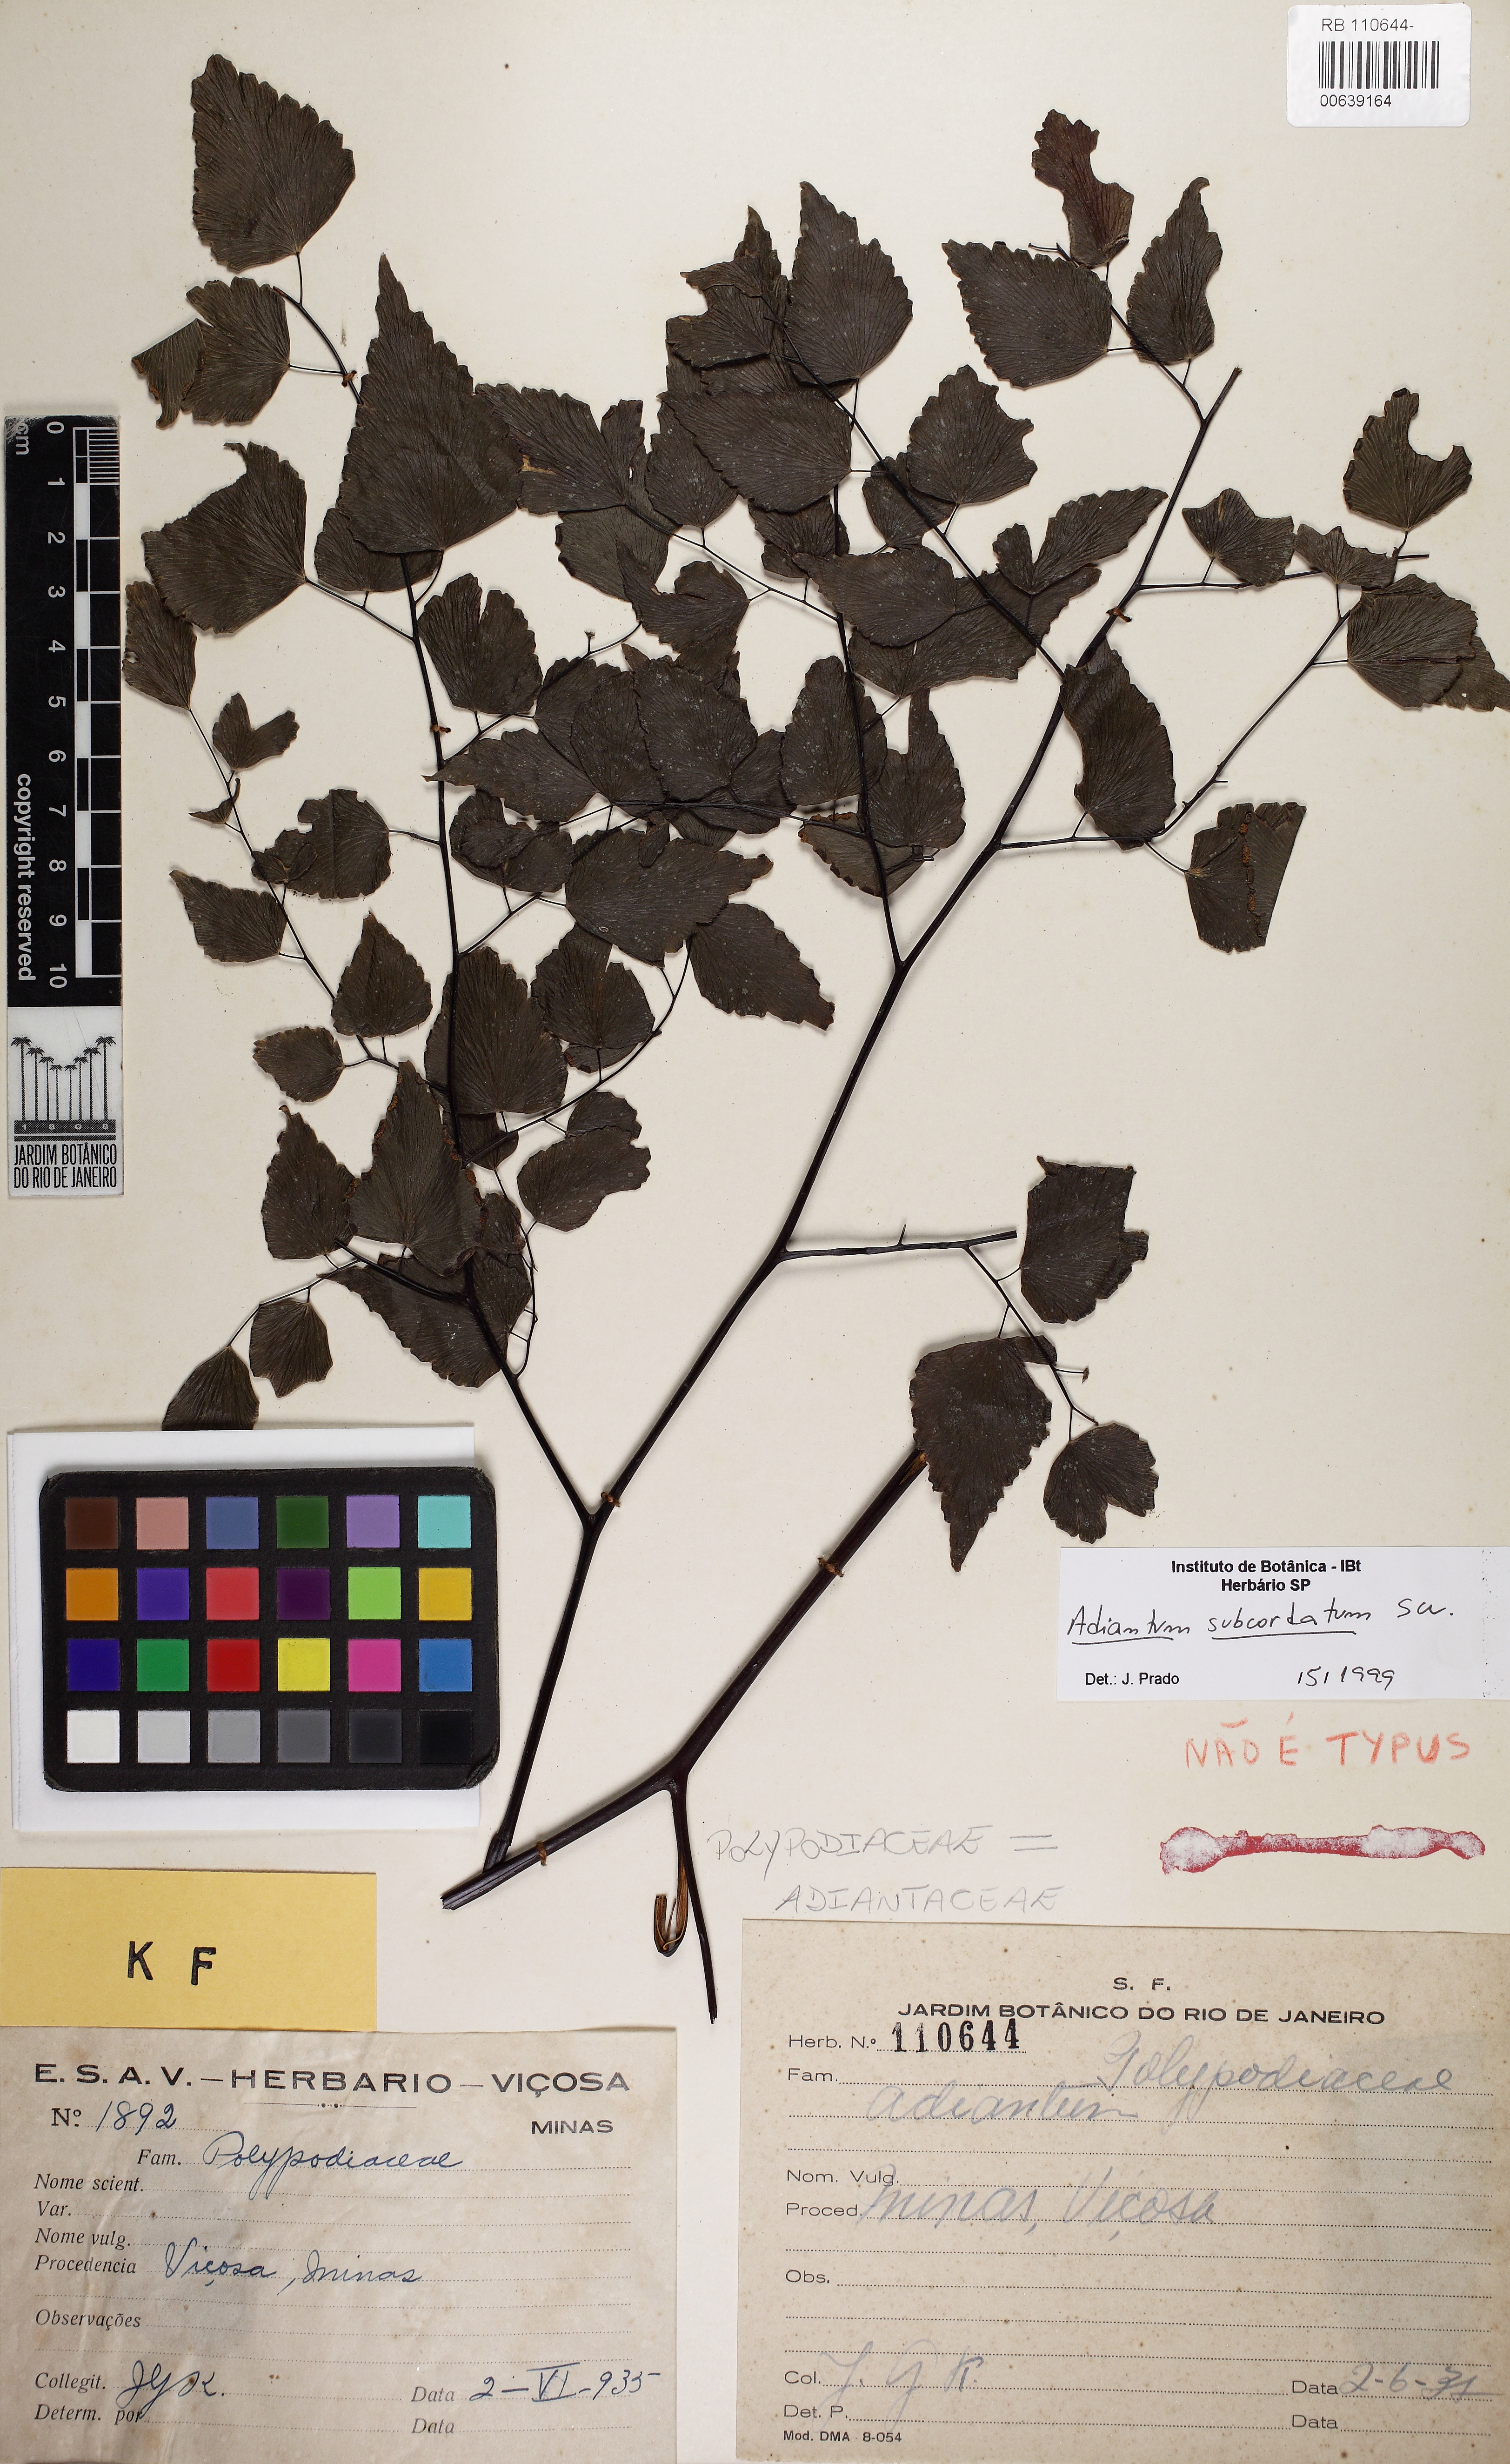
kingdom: Plantae
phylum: Tracheophyta
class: Polypodiopsida
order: Polypodiales
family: Pteridaceae
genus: Adiantum
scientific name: Adiantum subcordatum
